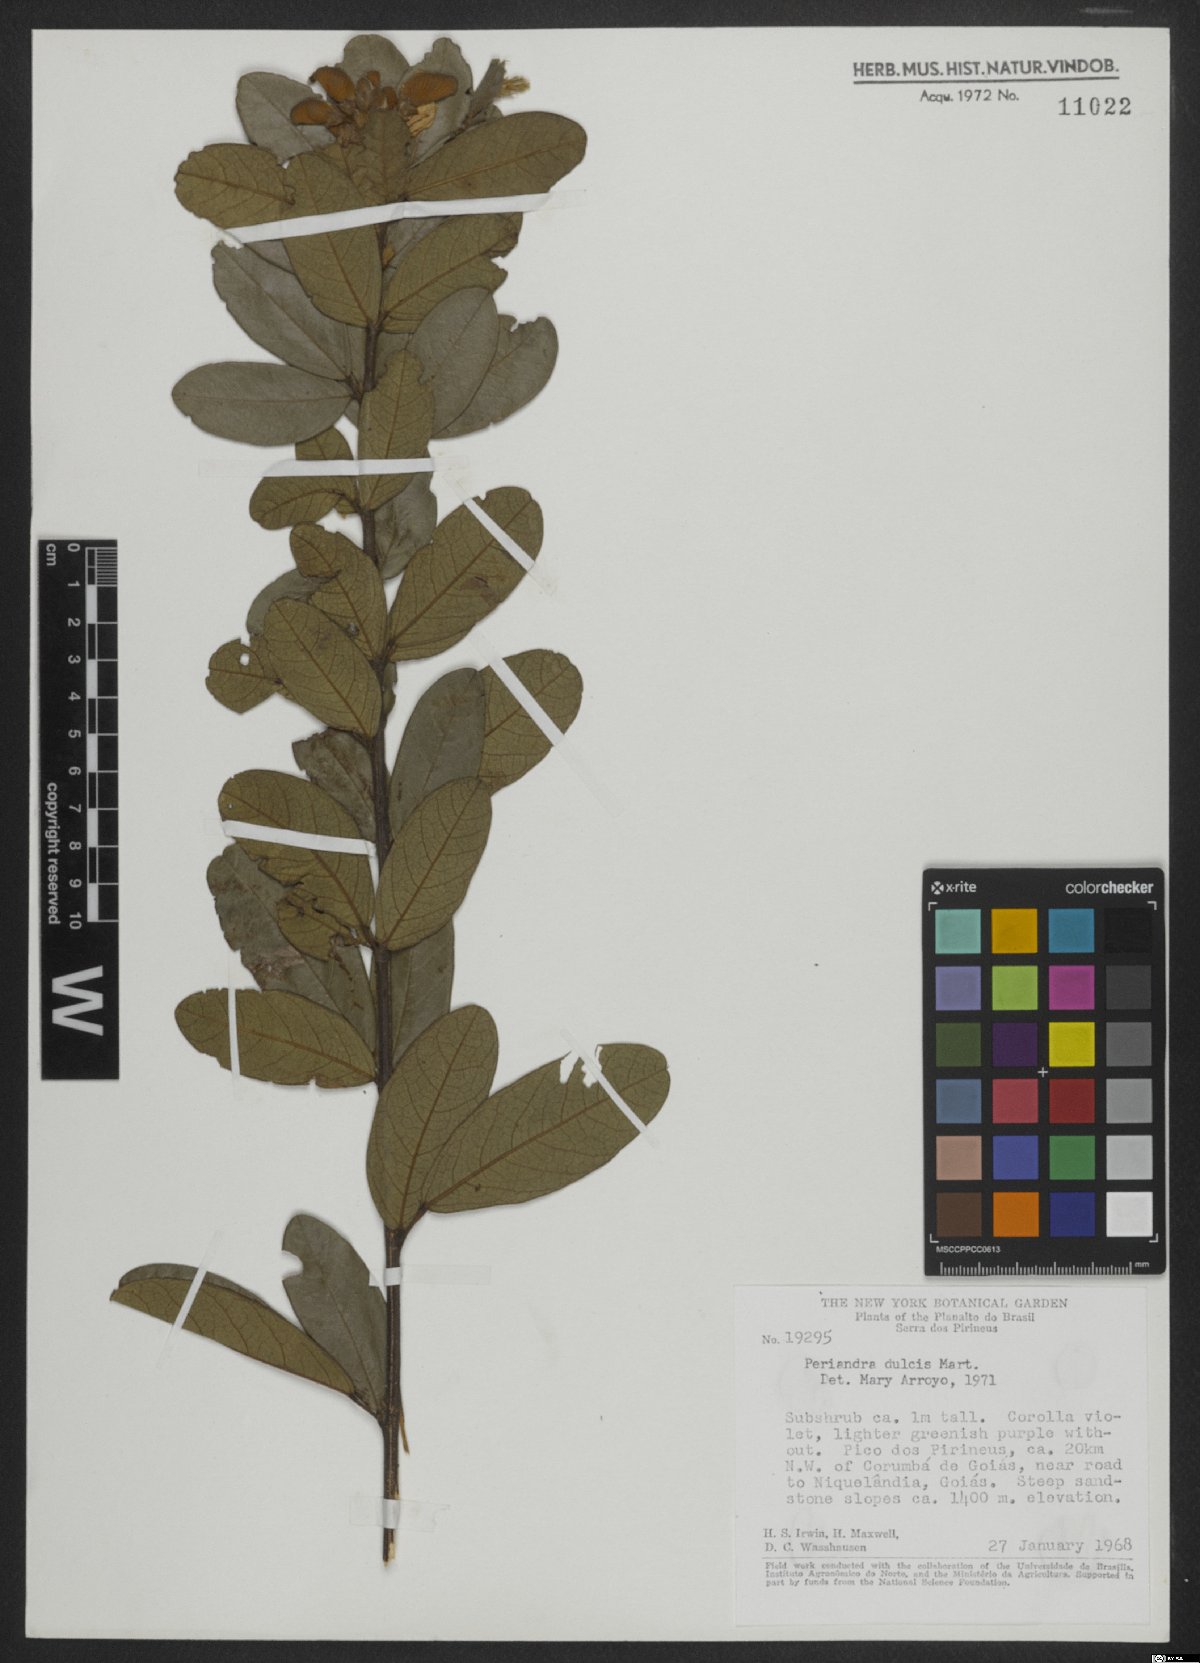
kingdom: Plantae
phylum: Tracheophyta
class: Magnoliopsida
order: Fabales
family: Fabaceae
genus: Periandra
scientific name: Periandra mediterranea
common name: Brazilian licorice
